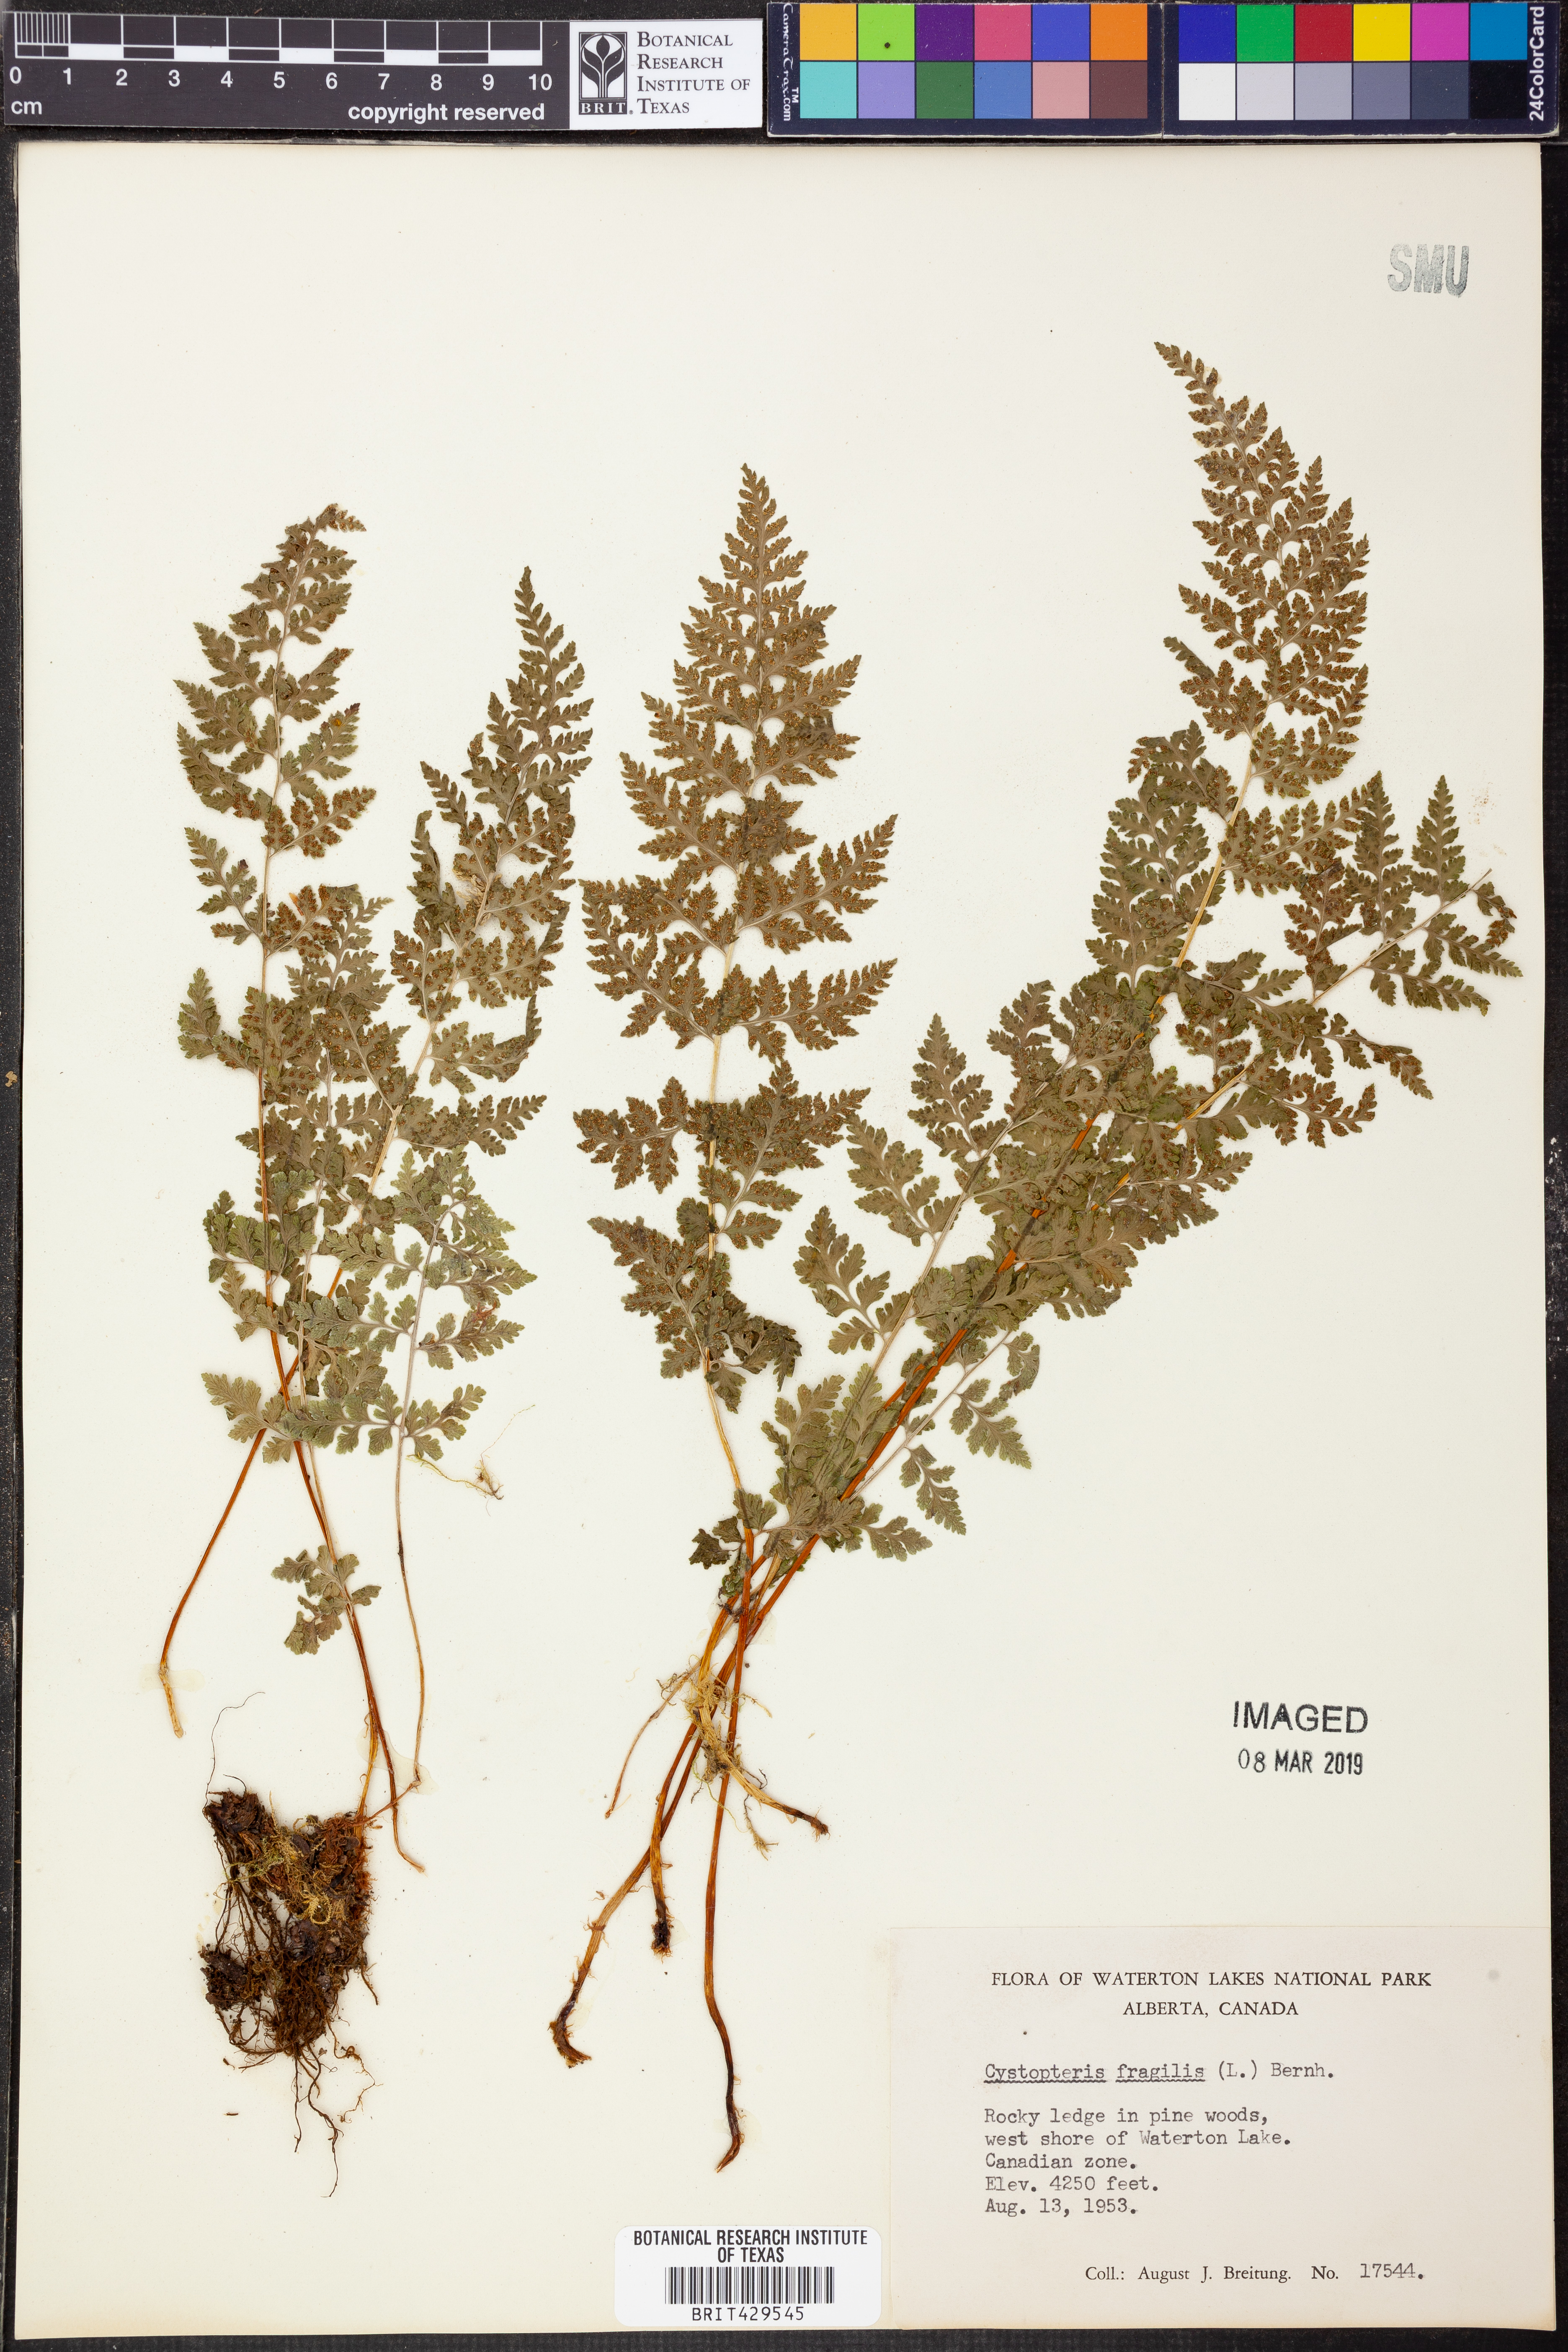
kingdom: Plantae
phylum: Tracheophyta
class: Polypodiopsida
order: Polypodiales
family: Cystopteridaceae
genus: Cystopteris
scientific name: Cystopteris fragilis
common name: Brittle bladder fern
